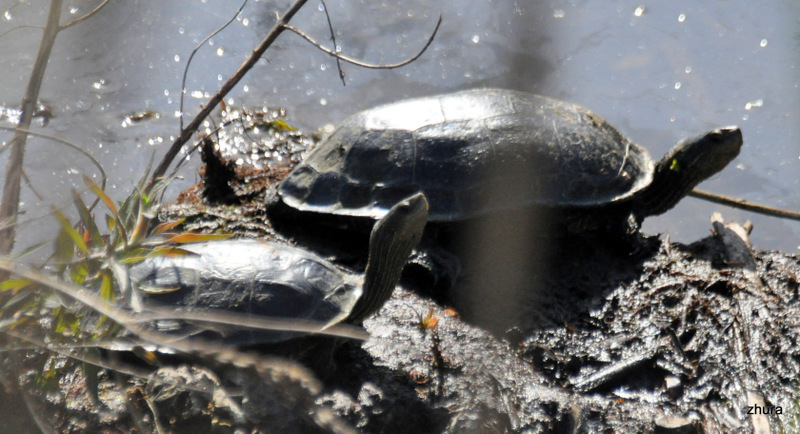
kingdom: Animalia
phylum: Chordata
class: Testudines
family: Geoemydidae
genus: Mauremys
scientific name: Mauremys caspica
